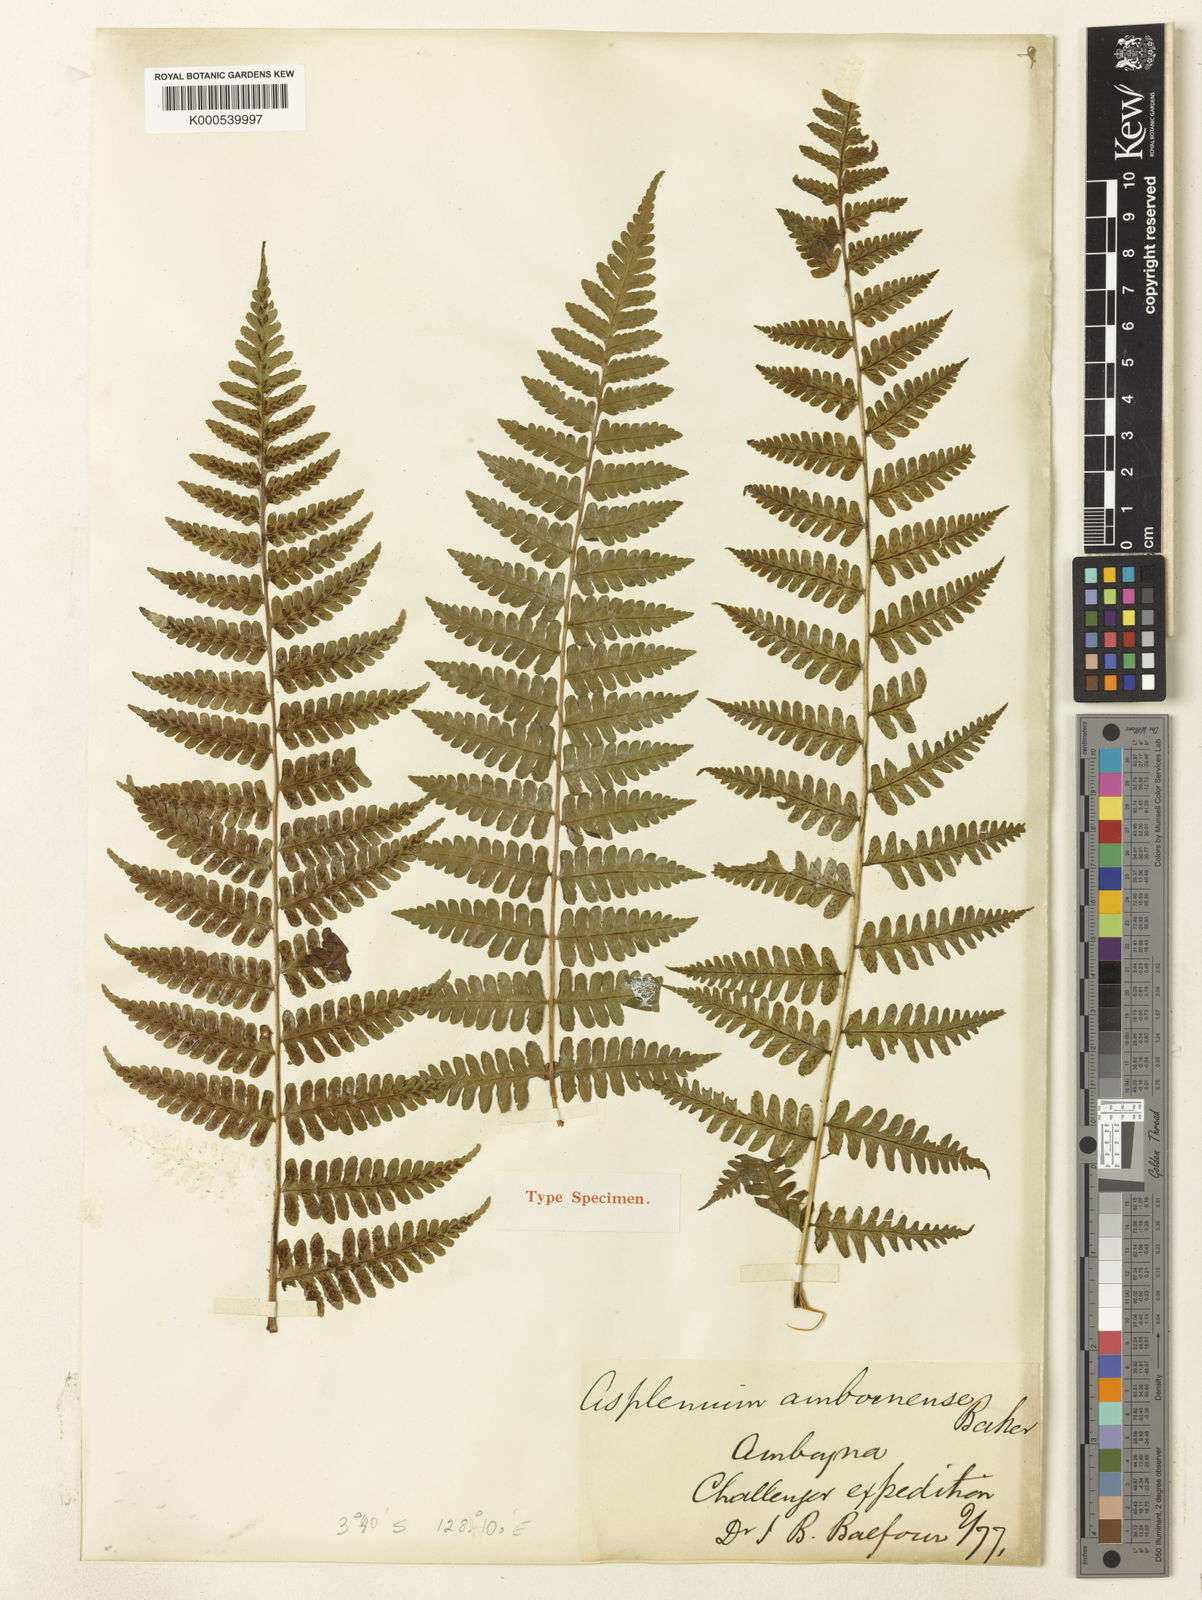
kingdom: Plantae
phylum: Tracheophyta
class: Polypodiopsida
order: Polypodiales
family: Athyriaceae
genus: Cornopteris
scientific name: Cornopteris atroviridis
